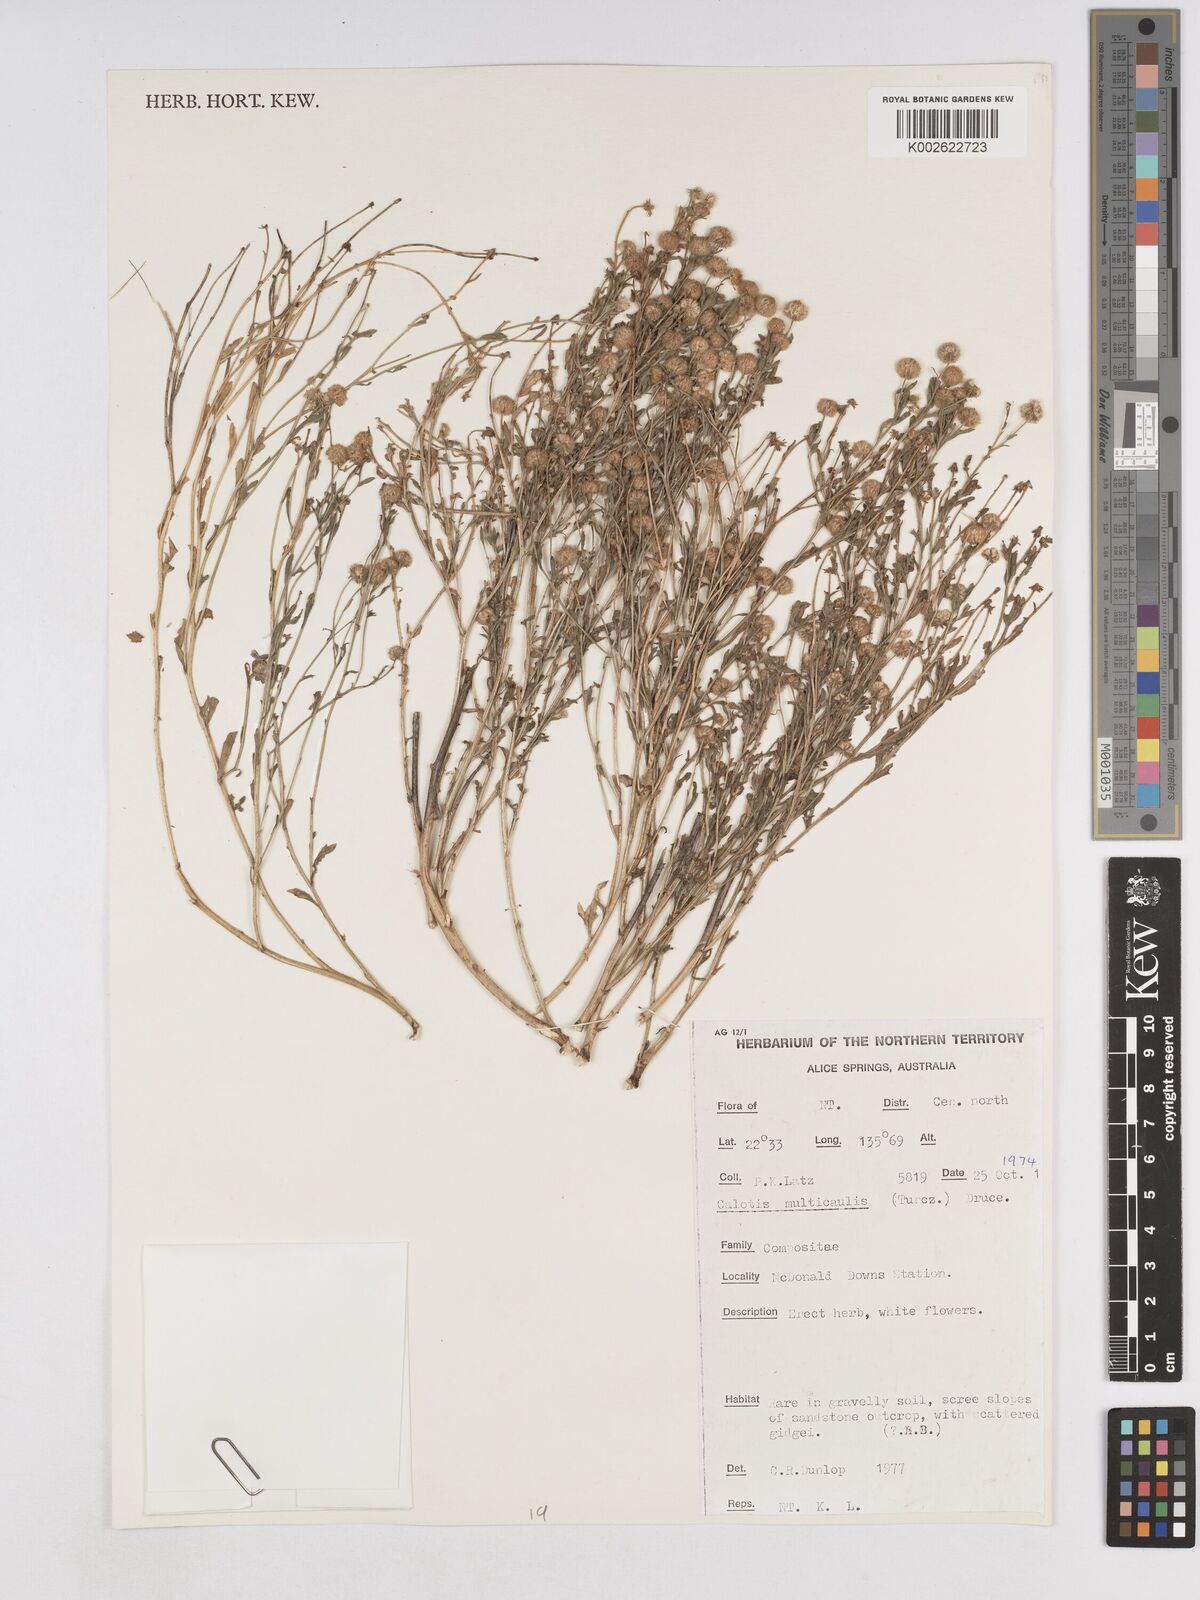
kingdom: Plantae
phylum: Tracheophyta
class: Magnoliopsida
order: Asterales
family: Asteraceae
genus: Calotis
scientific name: Calotis multicaulis
